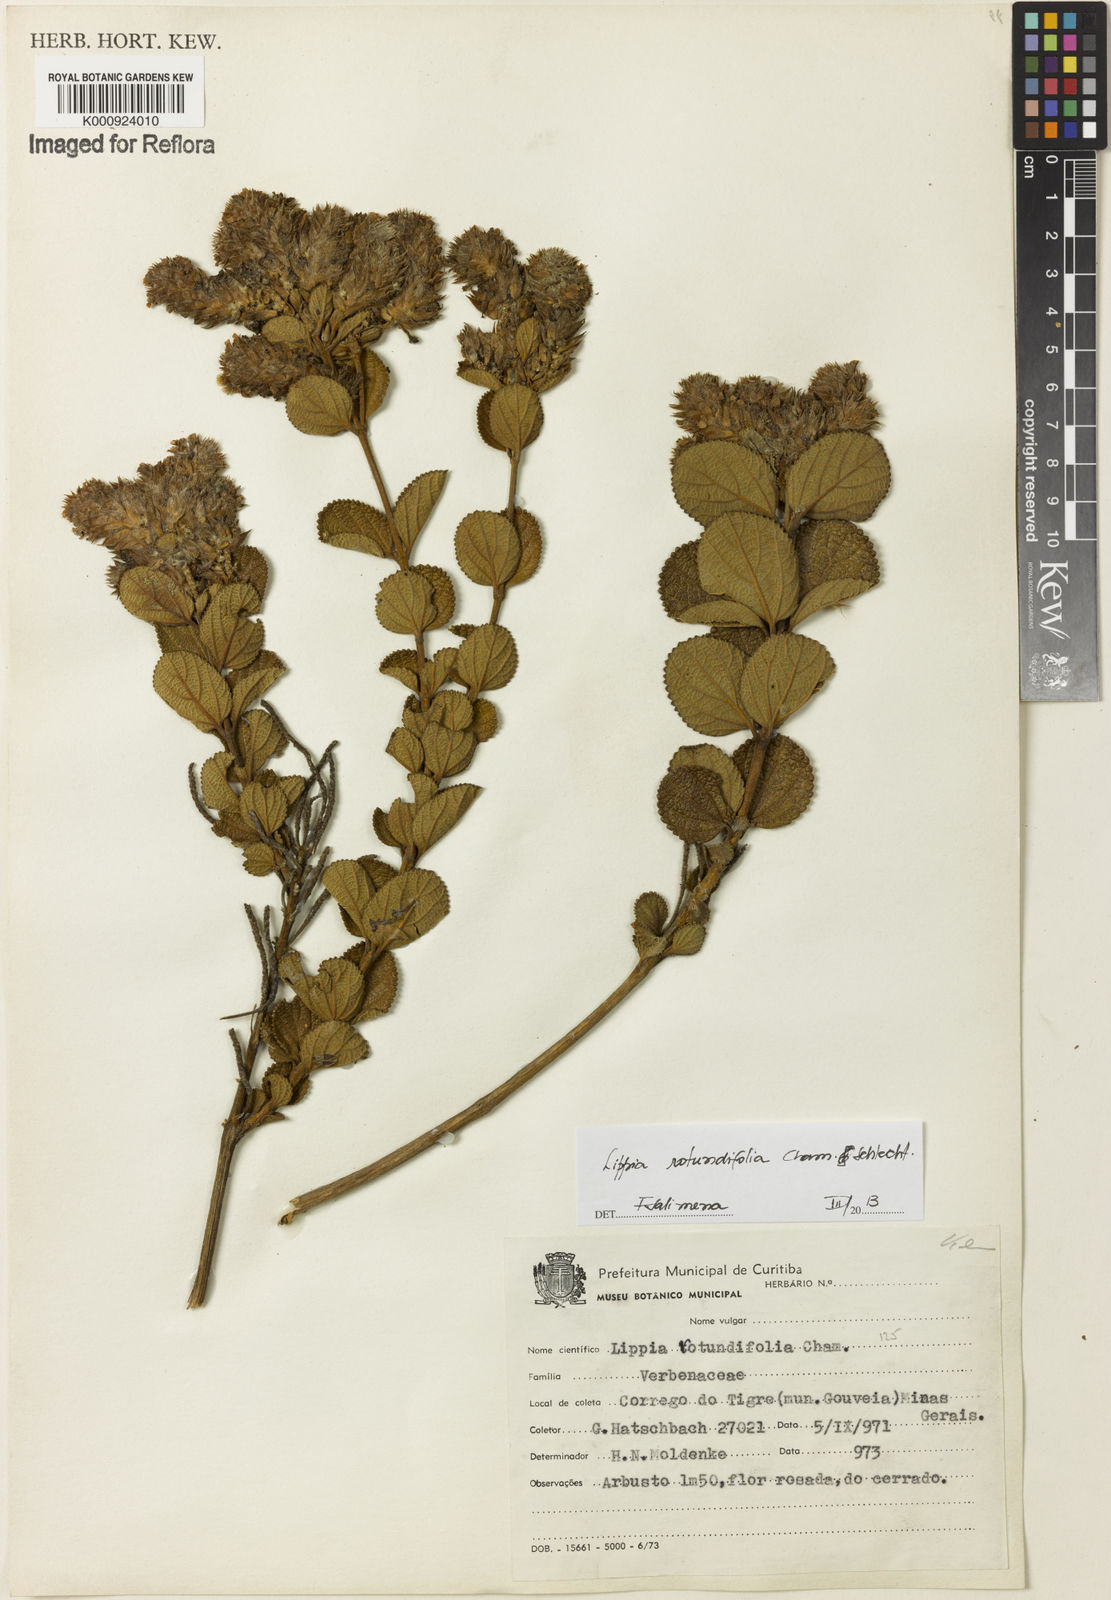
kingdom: Plantae
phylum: Tracheophyta
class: Magnoliopsida
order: Lamiales
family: Verbenaceae
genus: Lippia
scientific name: Lippia rotundifolia
